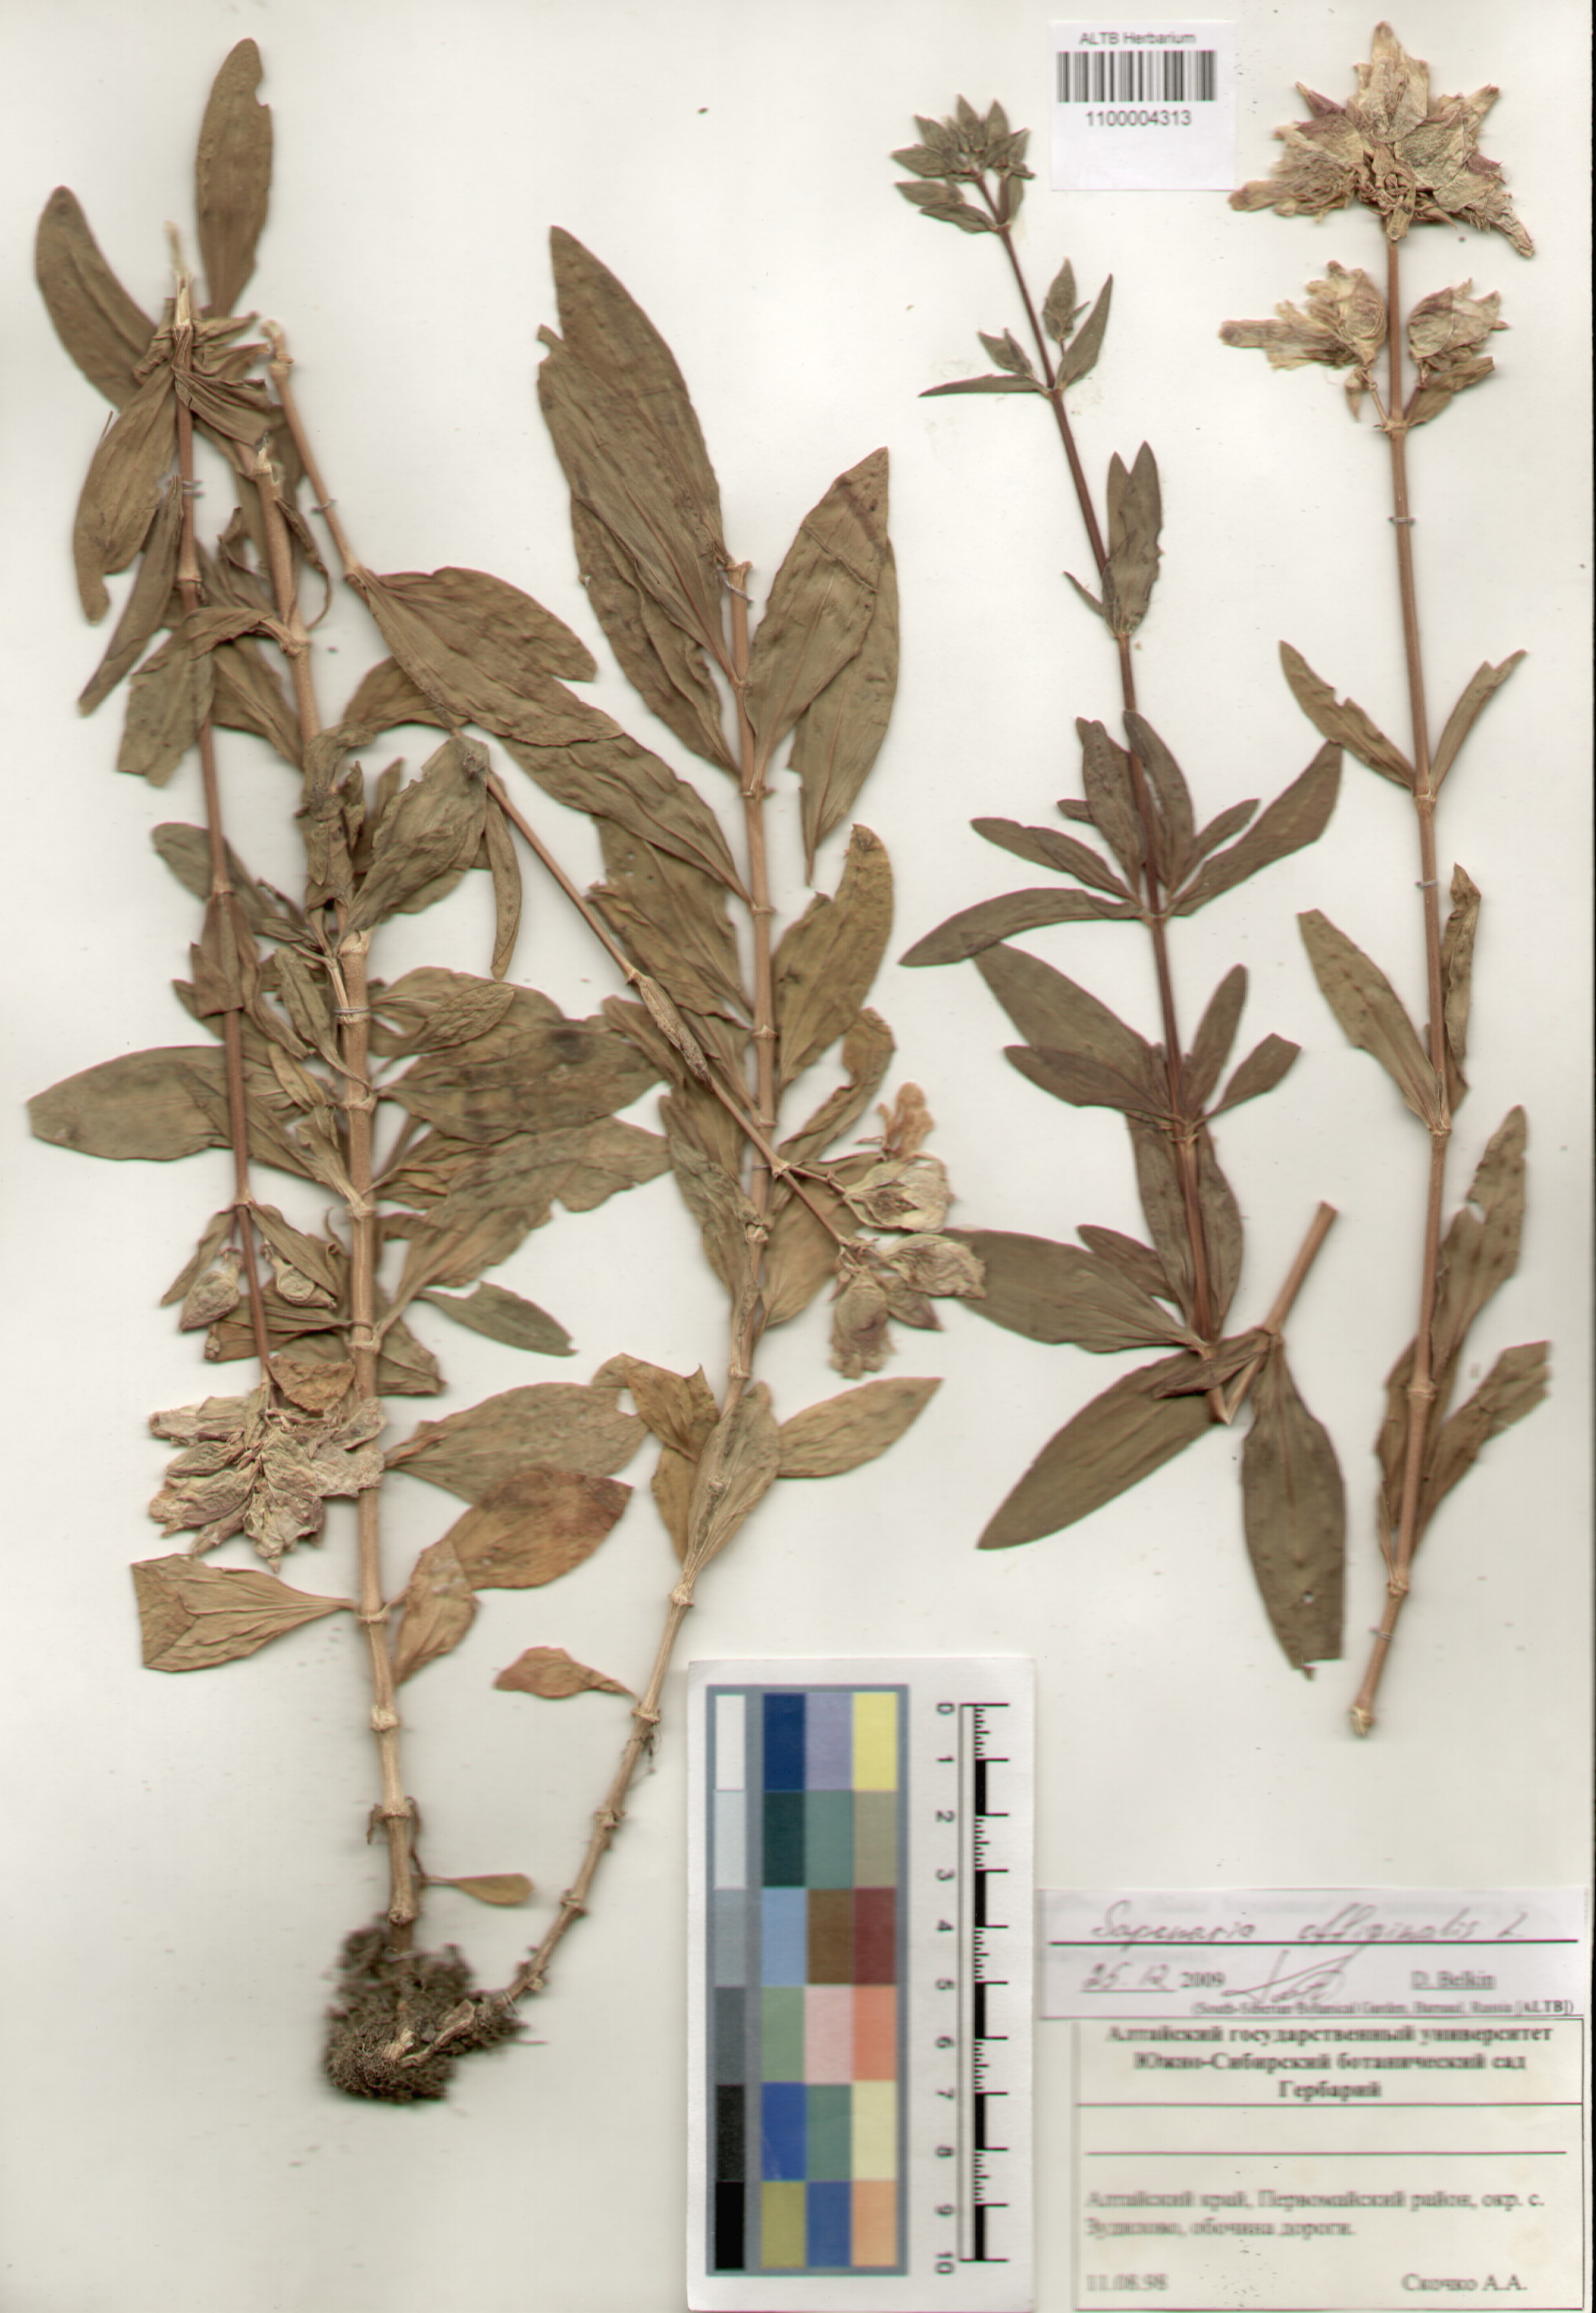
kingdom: Plantae
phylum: Tracheophyta
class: Magnoliopsida
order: Caryophyllales
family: Caryophyllaceae
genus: Saponaria
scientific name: Saponaria officinalis
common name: Soapwort
